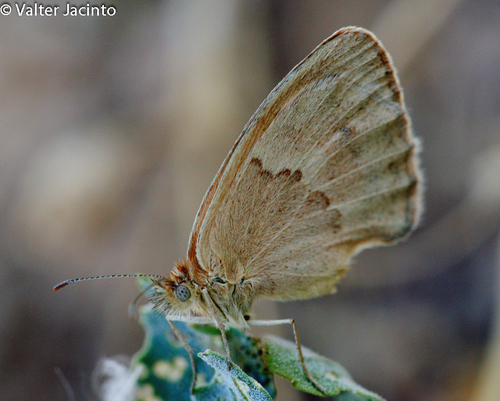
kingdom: Animalia
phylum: Arthropoda
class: Insecta
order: Lepidoptera
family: Nymphalidae
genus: Coenonympha
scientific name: Coenonympha pamphilus
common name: Small heath
